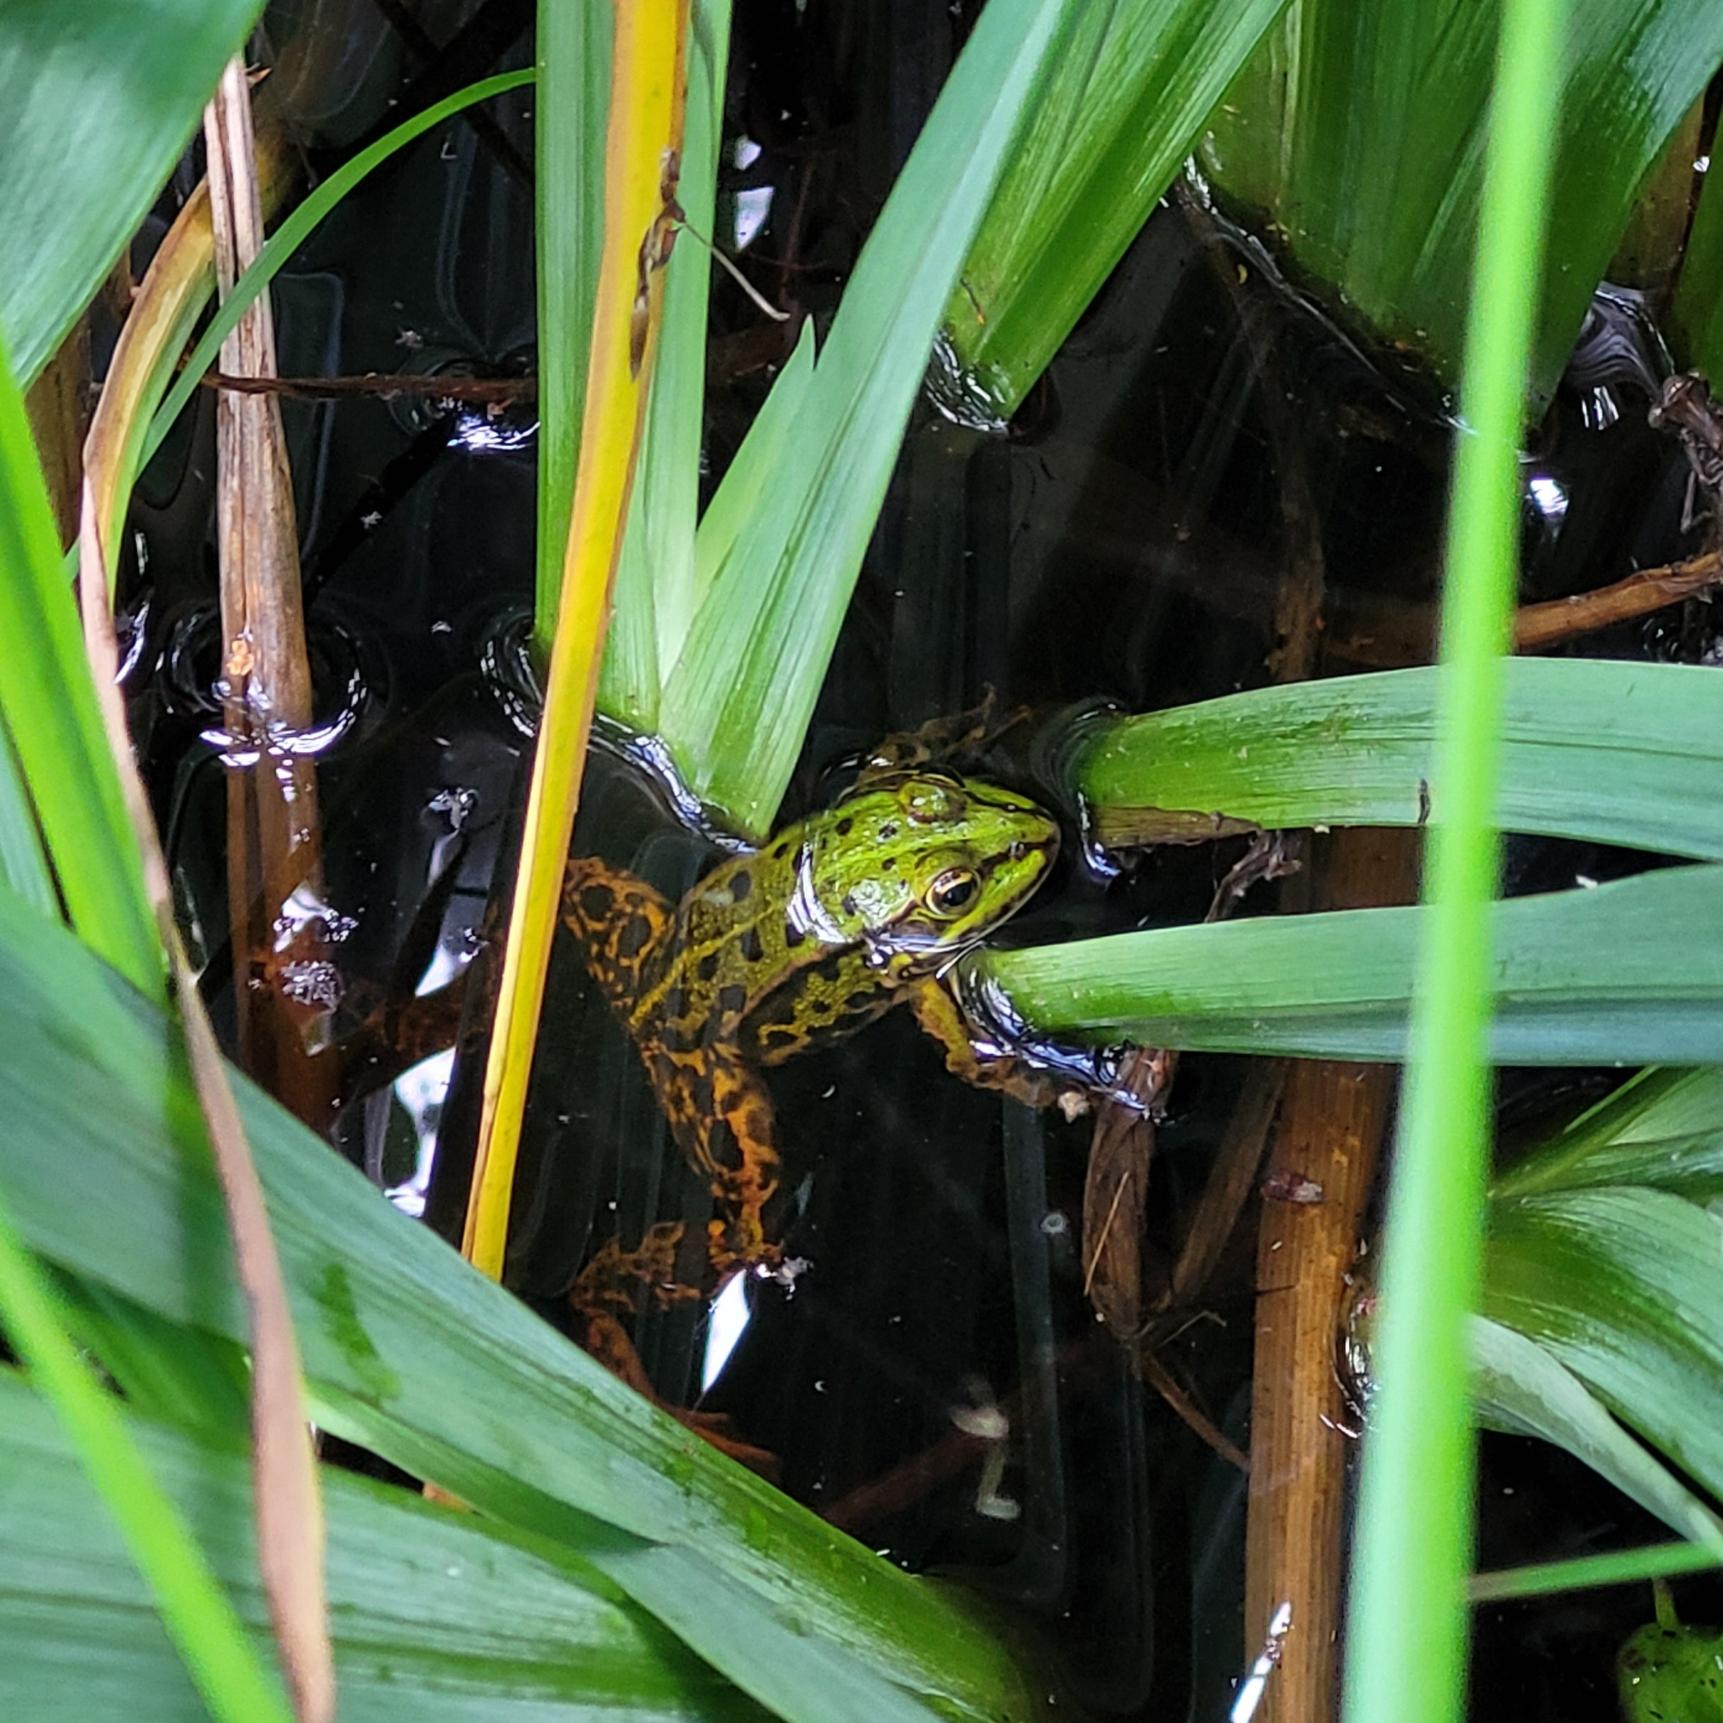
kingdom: Animalia
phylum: Chordata
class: Amphibia
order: Anura
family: Ranidae
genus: Pelophylax
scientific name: Pelophylax lessonae
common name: Grøn frø
